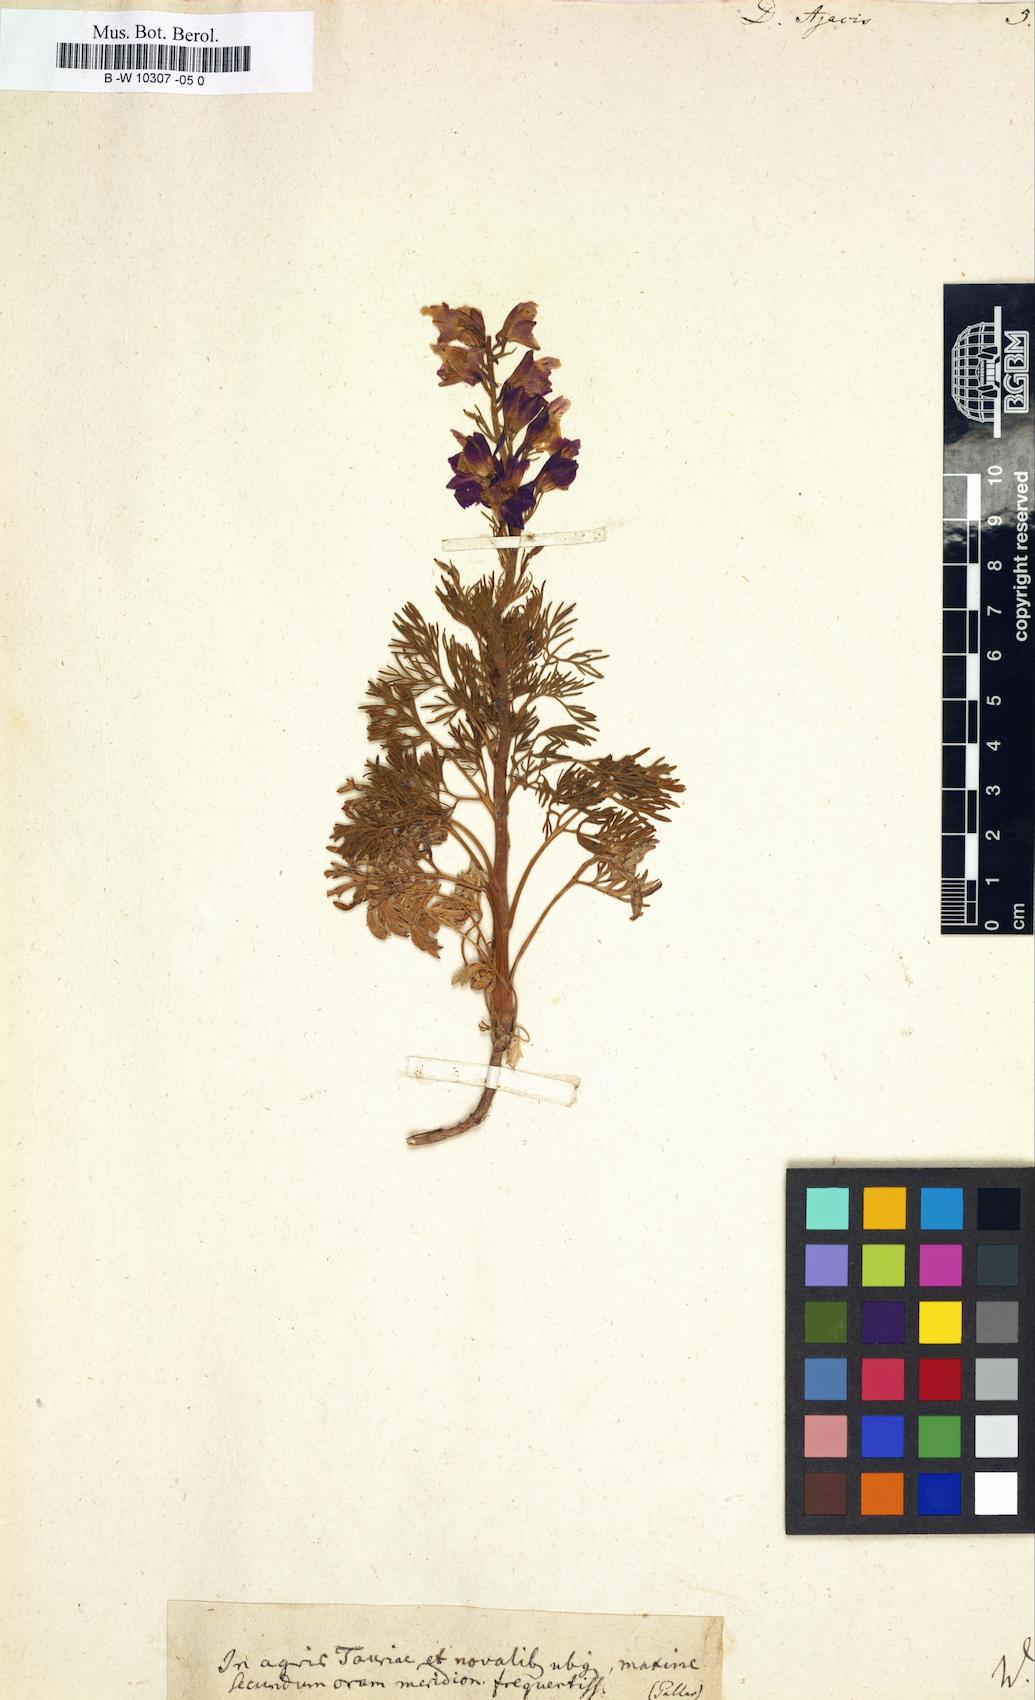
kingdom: Plantae
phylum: Tracheophyta
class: Magnoliopsida
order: Ranunculales
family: Ranunculaceae
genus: Delphinium
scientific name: Delphinium ajacis
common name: Doubtful knight's-spur
